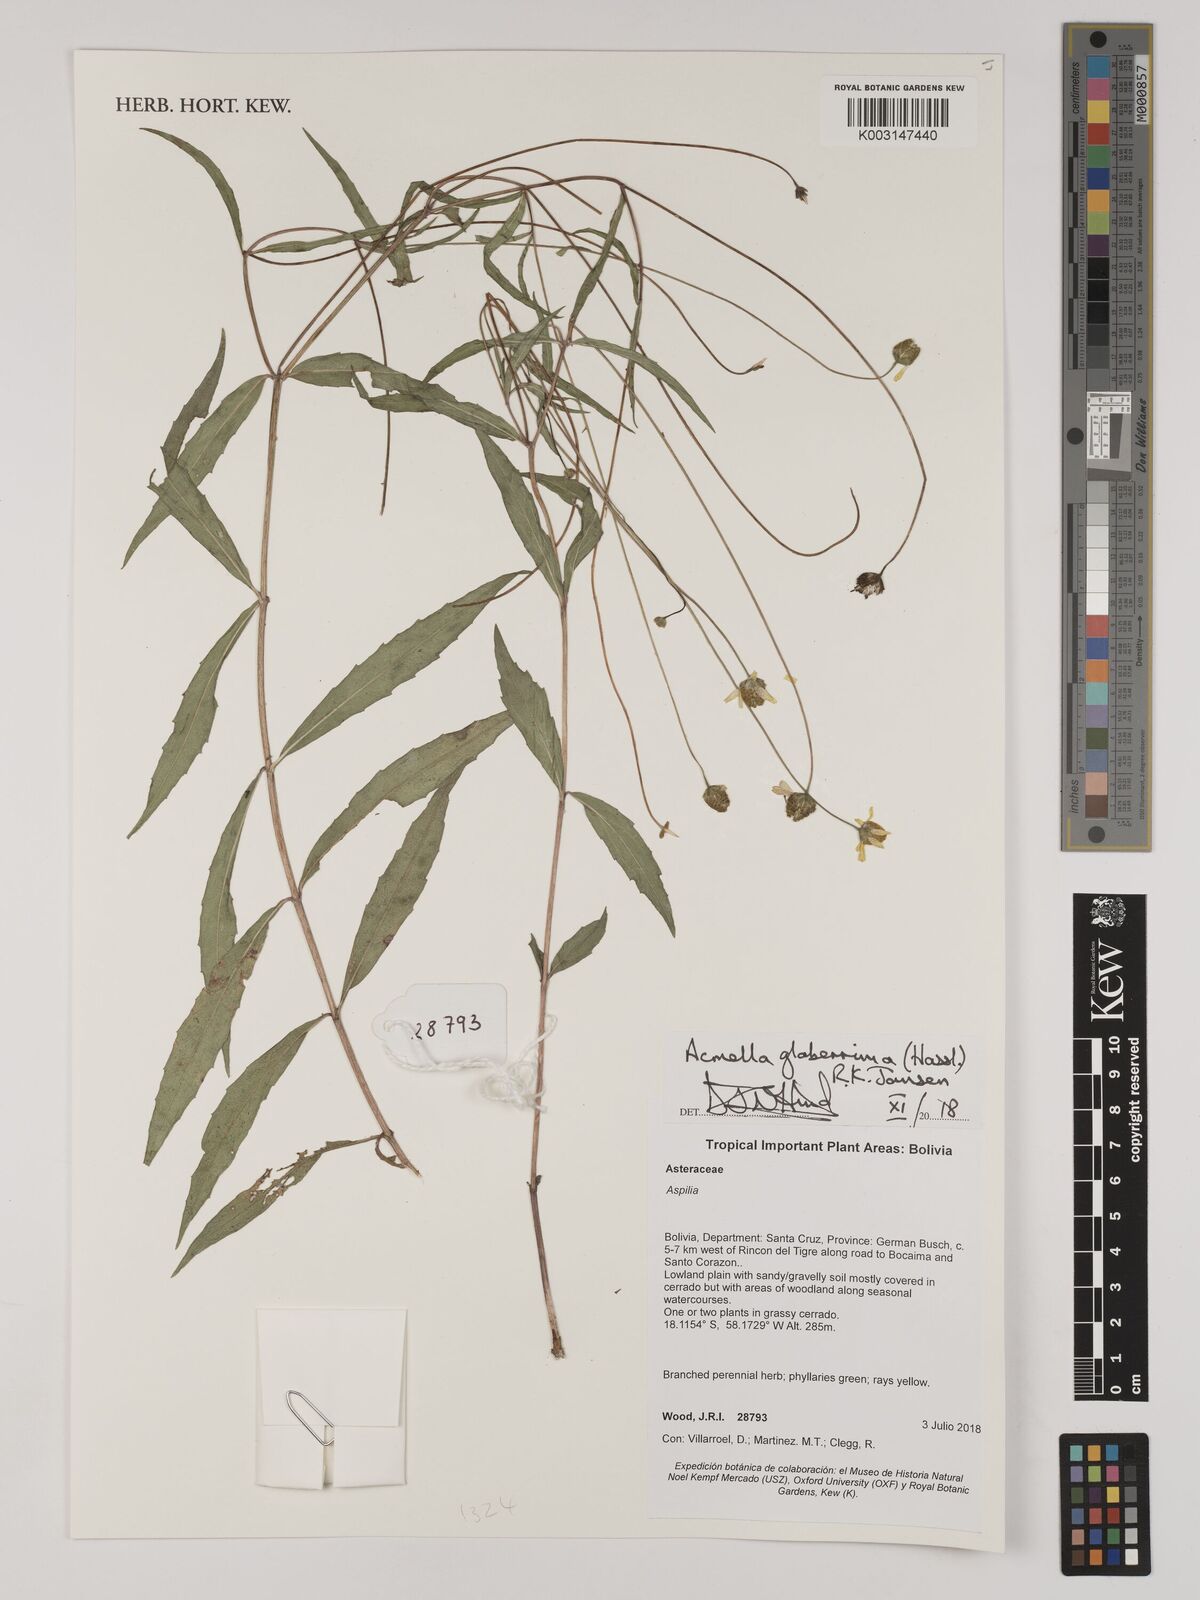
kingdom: Plantae
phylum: Tracheophyta
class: Magnoliopsida
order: Asterales
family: Asteraceae
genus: Acmella
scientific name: Acmella glaberrima
